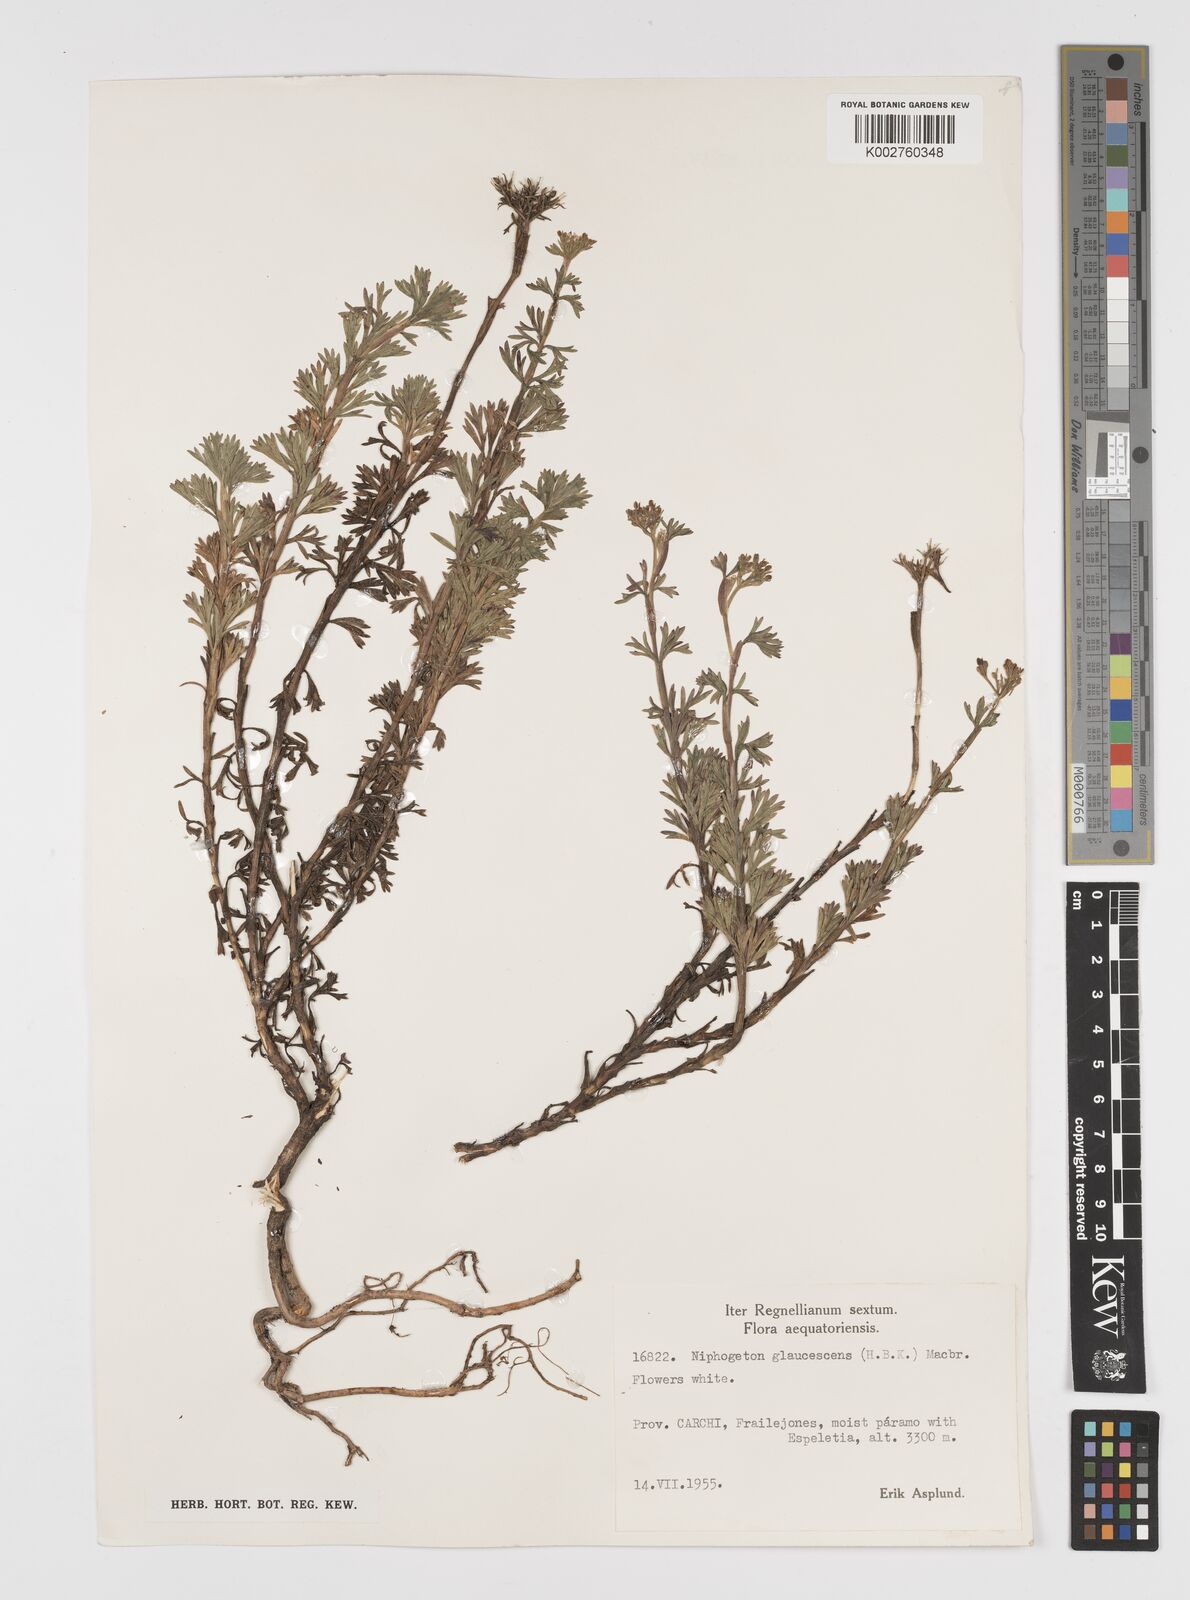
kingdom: Plantae
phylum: Tracheophyta
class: Magnoliopsida
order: Apiales
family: Apiaceae
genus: Niphogeton
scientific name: Niphogeton glaucescens
